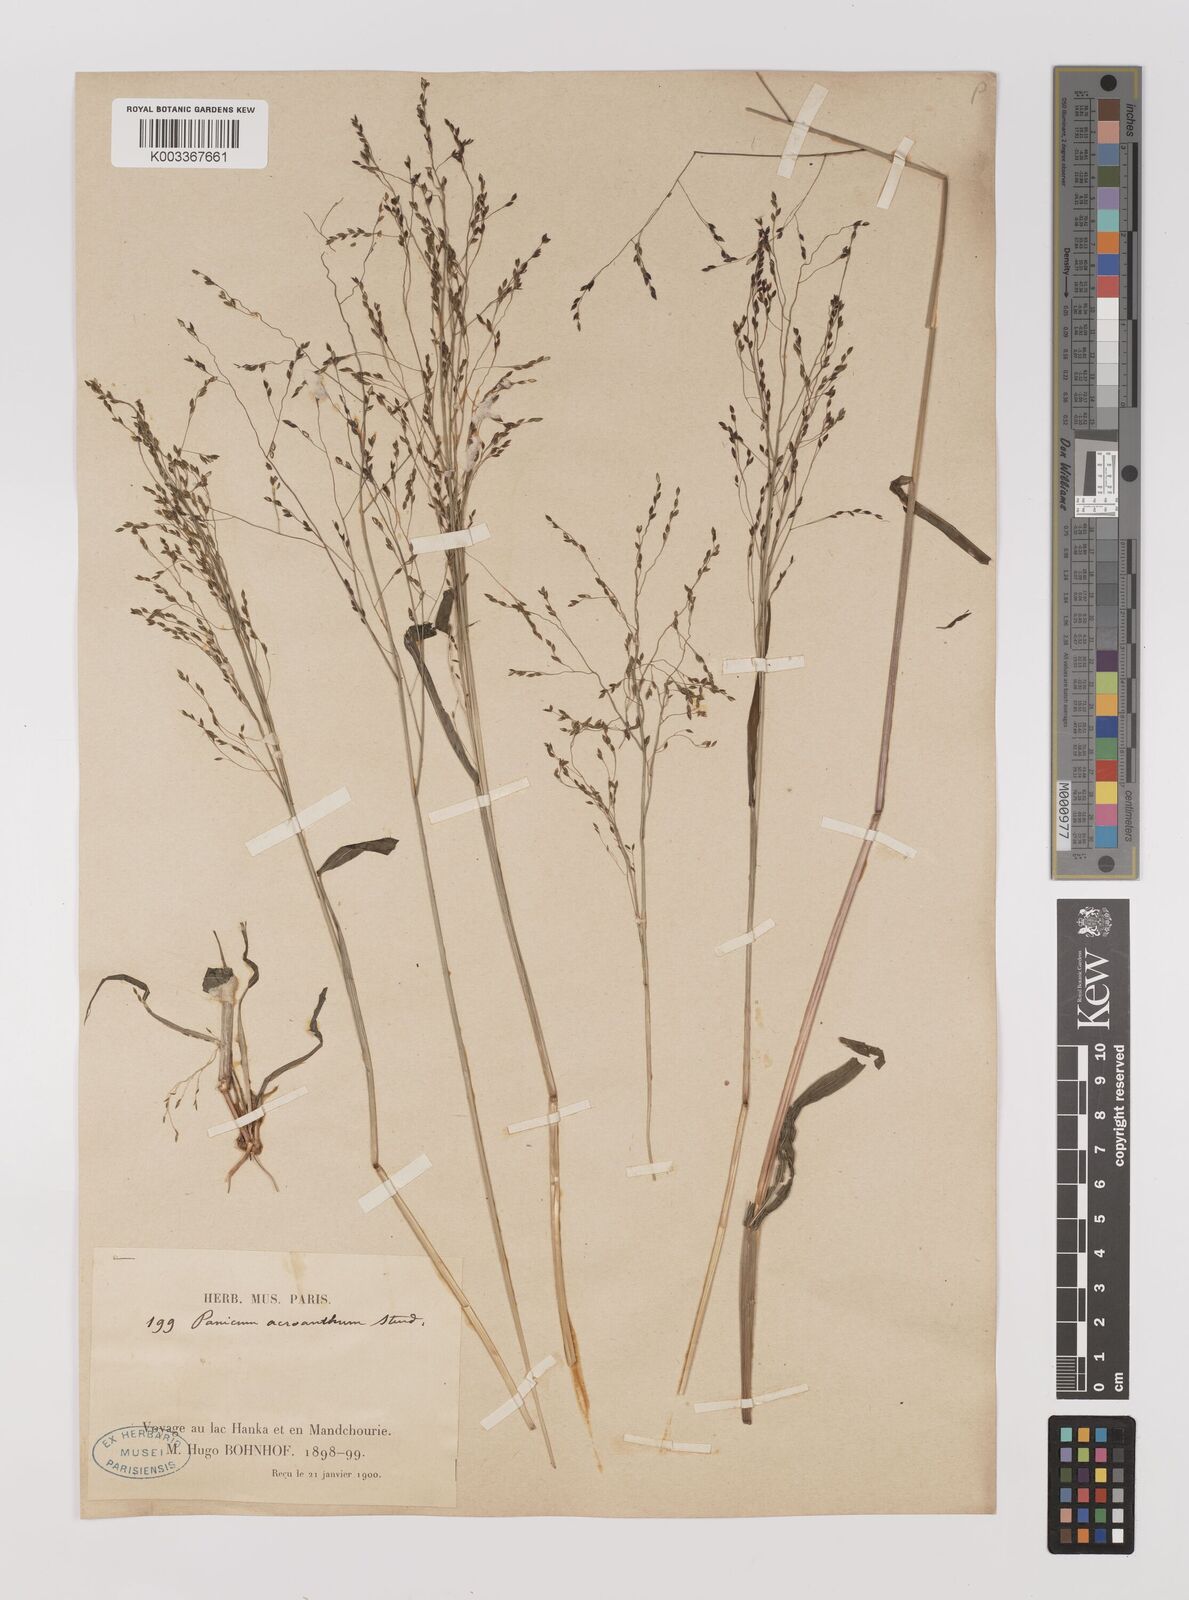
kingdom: Plantae
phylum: Tracheophyta
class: Liliopsida
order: Poales
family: Poaceae
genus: Panicum
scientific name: Panicum bisulcatum
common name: Japanese panicgrass
